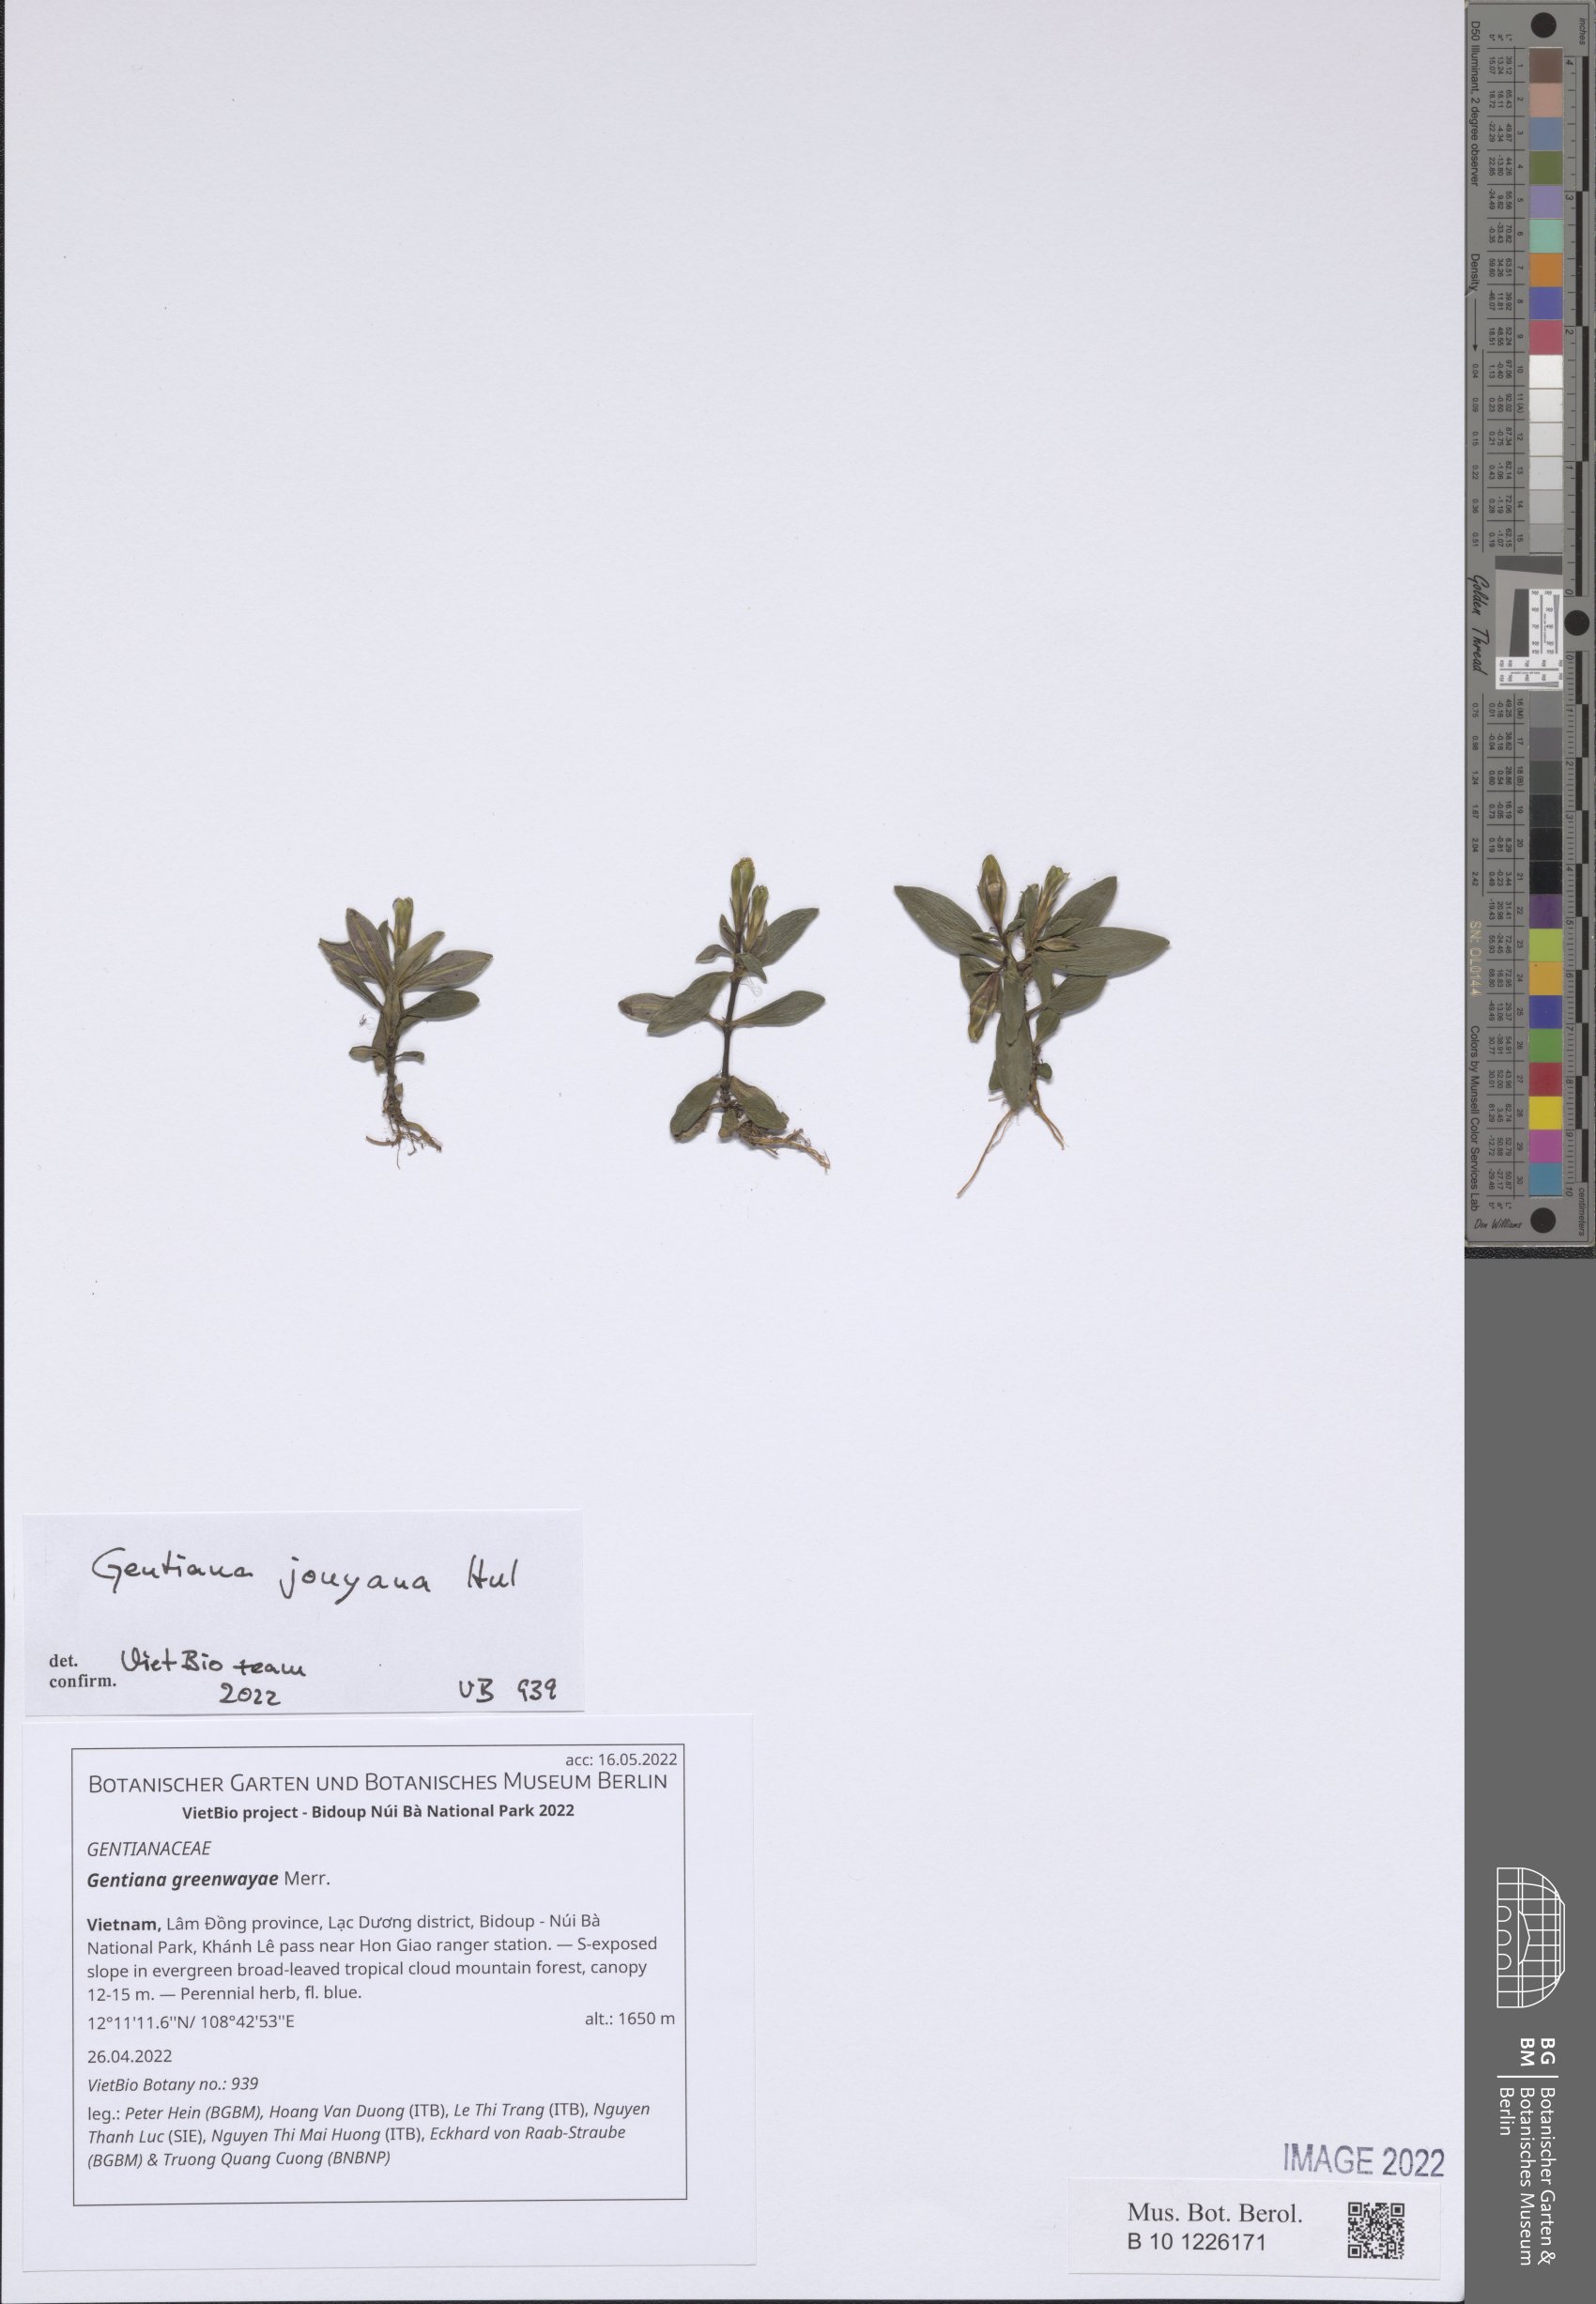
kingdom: Plantae
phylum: Tracheophyta
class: Magnoliopsida
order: Gentianales
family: Gentianaceae
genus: Gentiana
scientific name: Gentiana praticola
